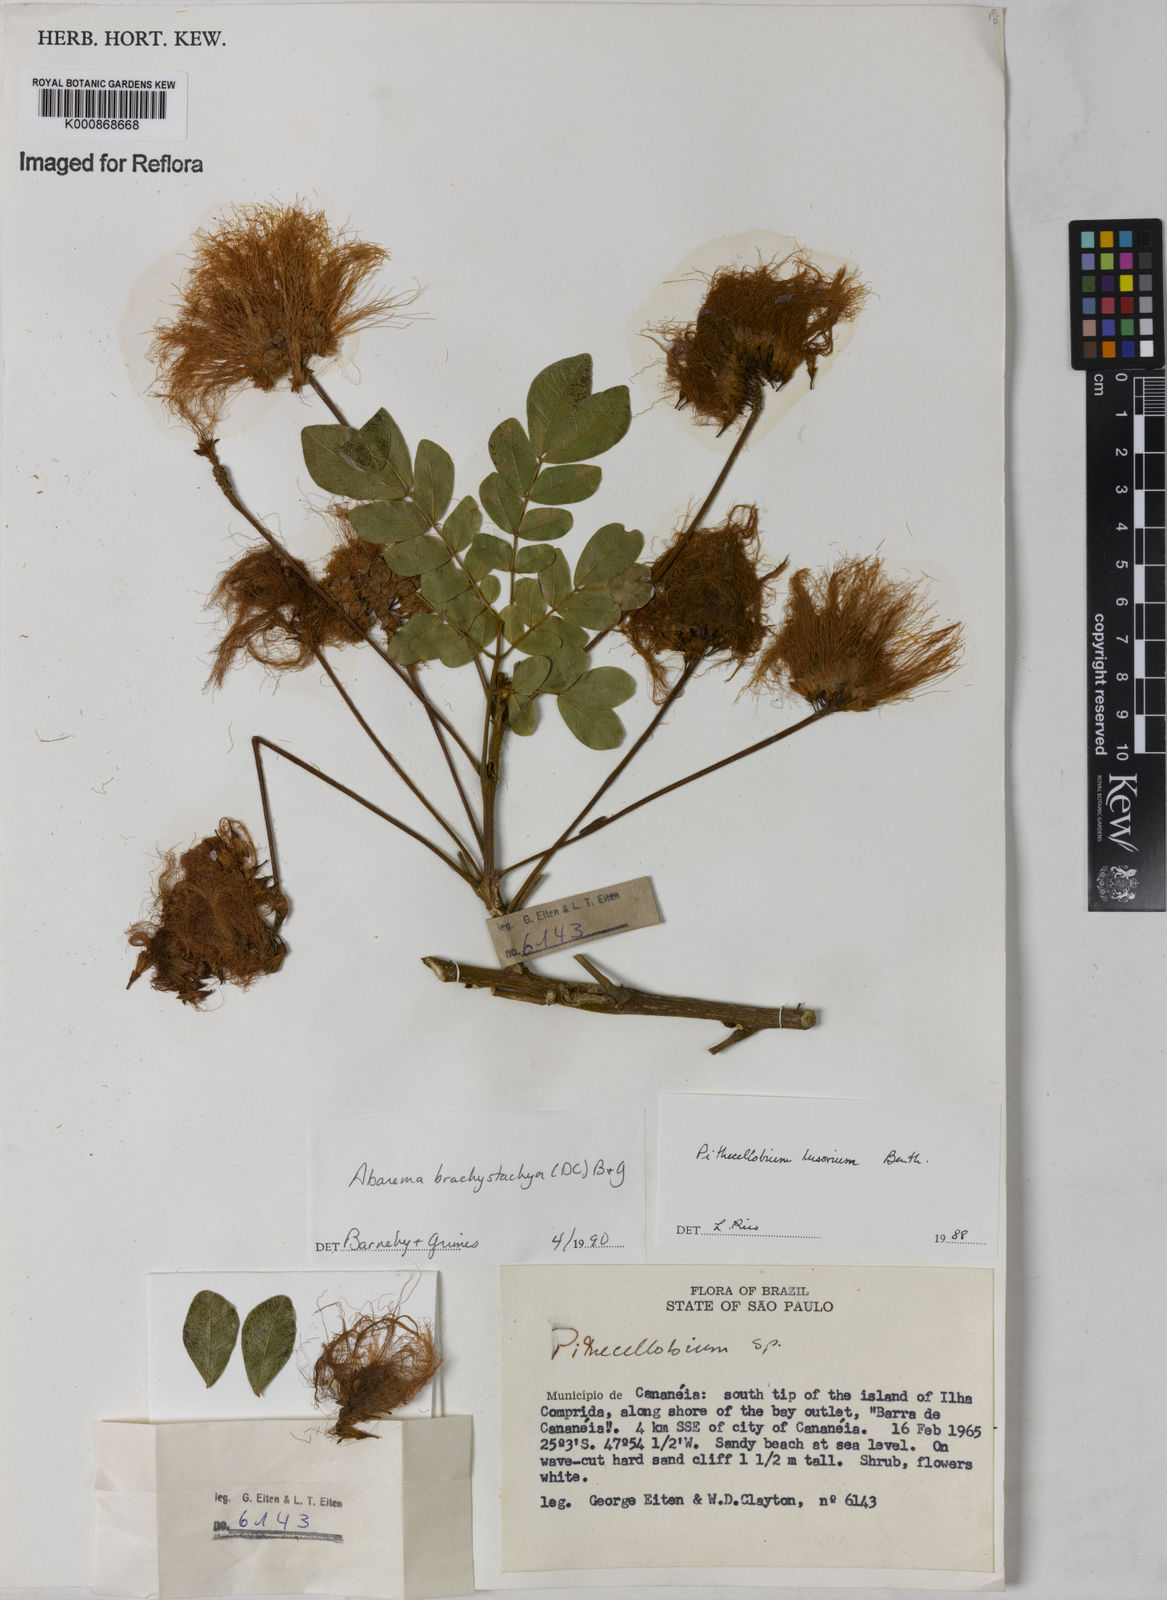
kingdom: Plantae
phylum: Tracheophyta
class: Magnoliopsida
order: Fabales
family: Fabaceae
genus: Abarema
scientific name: Abarema
